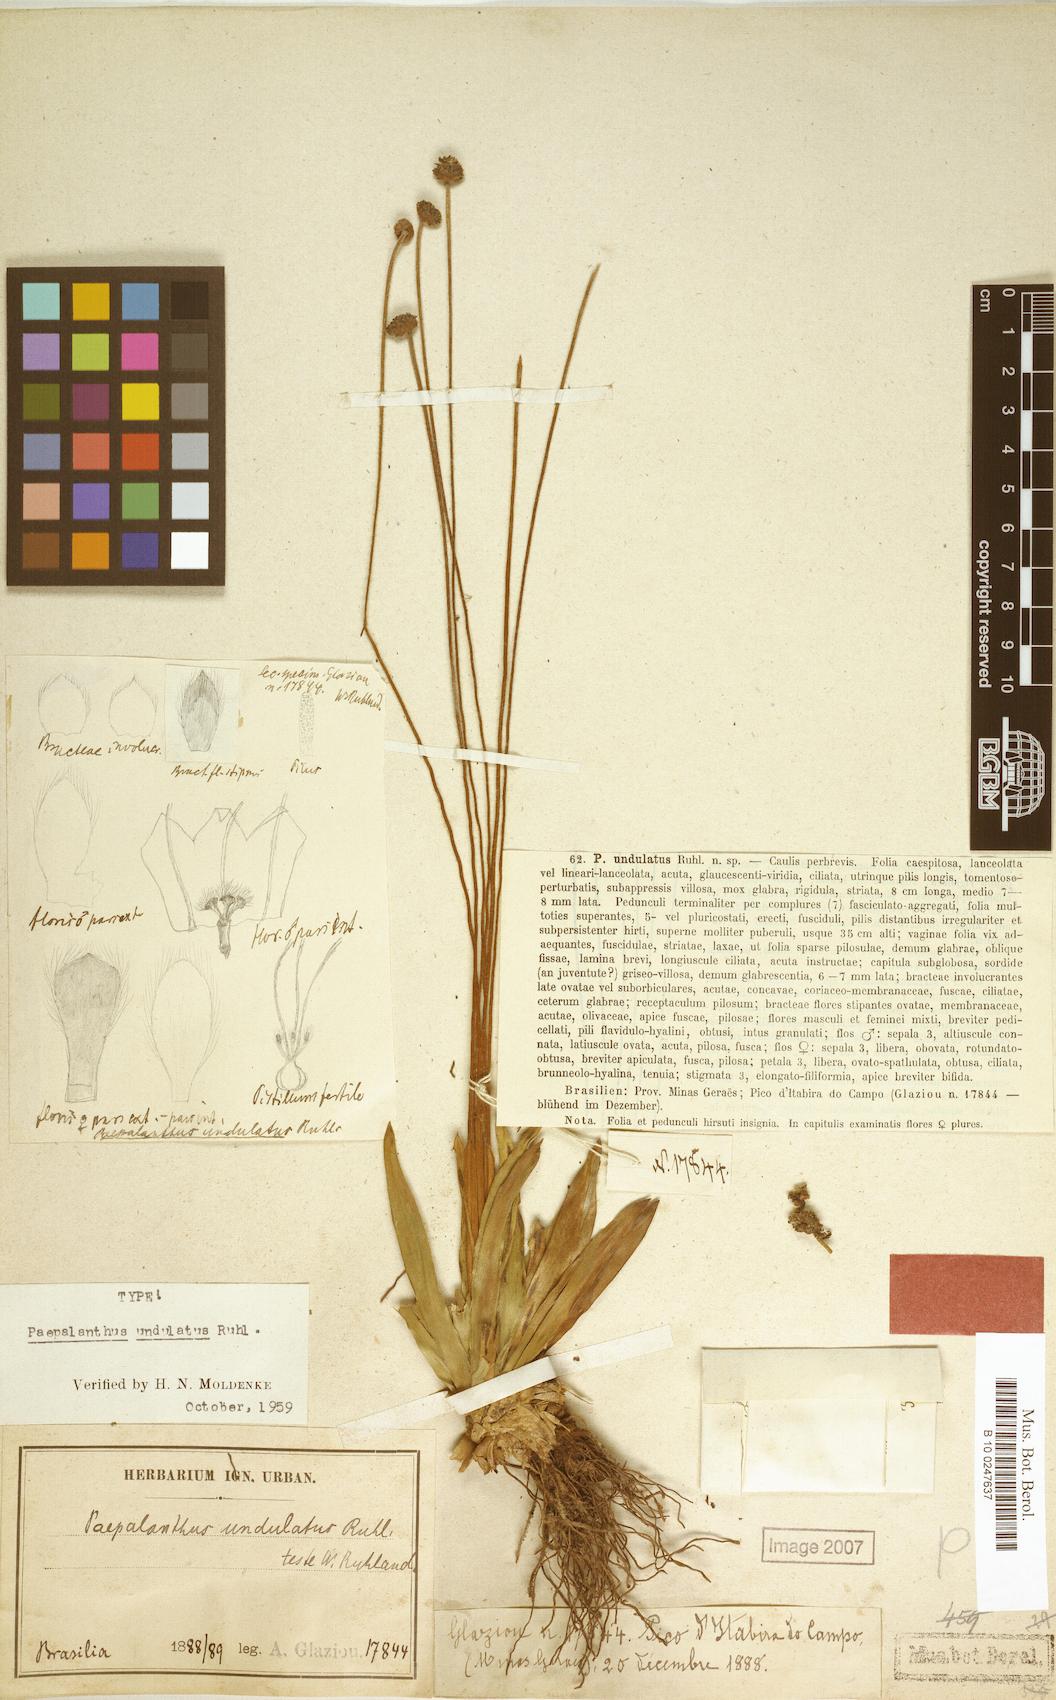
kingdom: Plantae
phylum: Tracheophyta
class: Liliopsida
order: Poales
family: Eriocaulaceae
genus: Paepalanthus
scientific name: Paepalanthus undulatus
